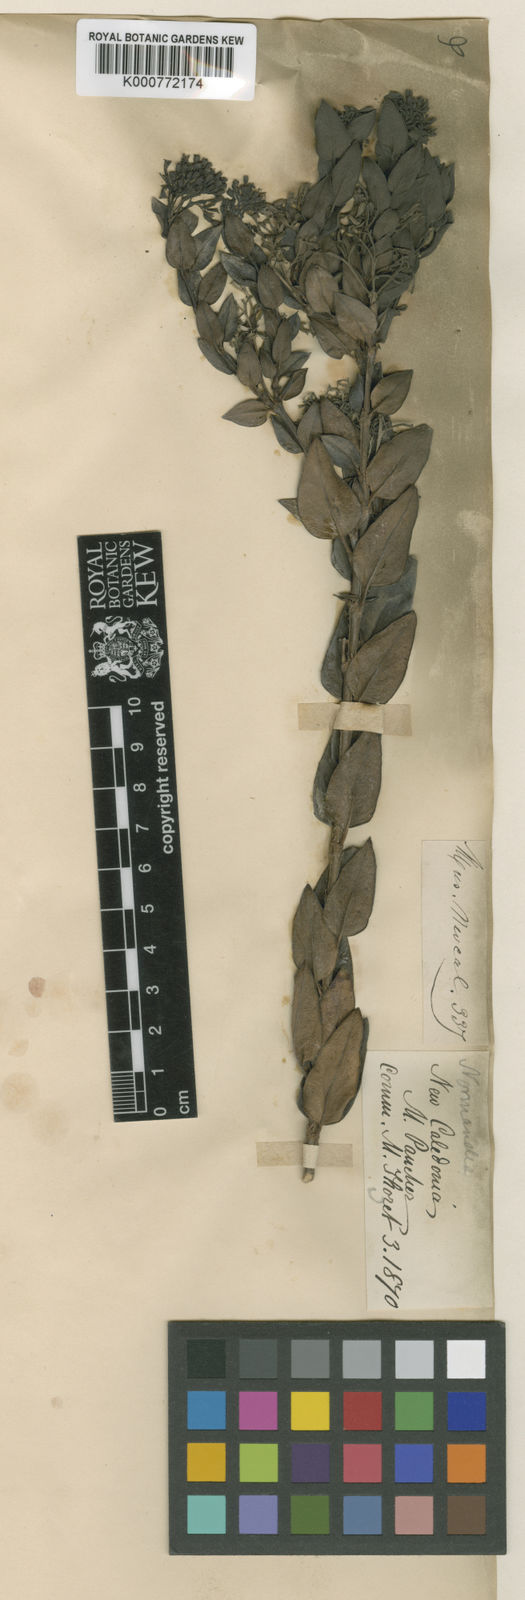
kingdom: Plantae
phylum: Tracheophyta
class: Magnoliopsida
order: Gentianales
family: Rubiaceae
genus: Normandia
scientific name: Normandia neocaledonica
